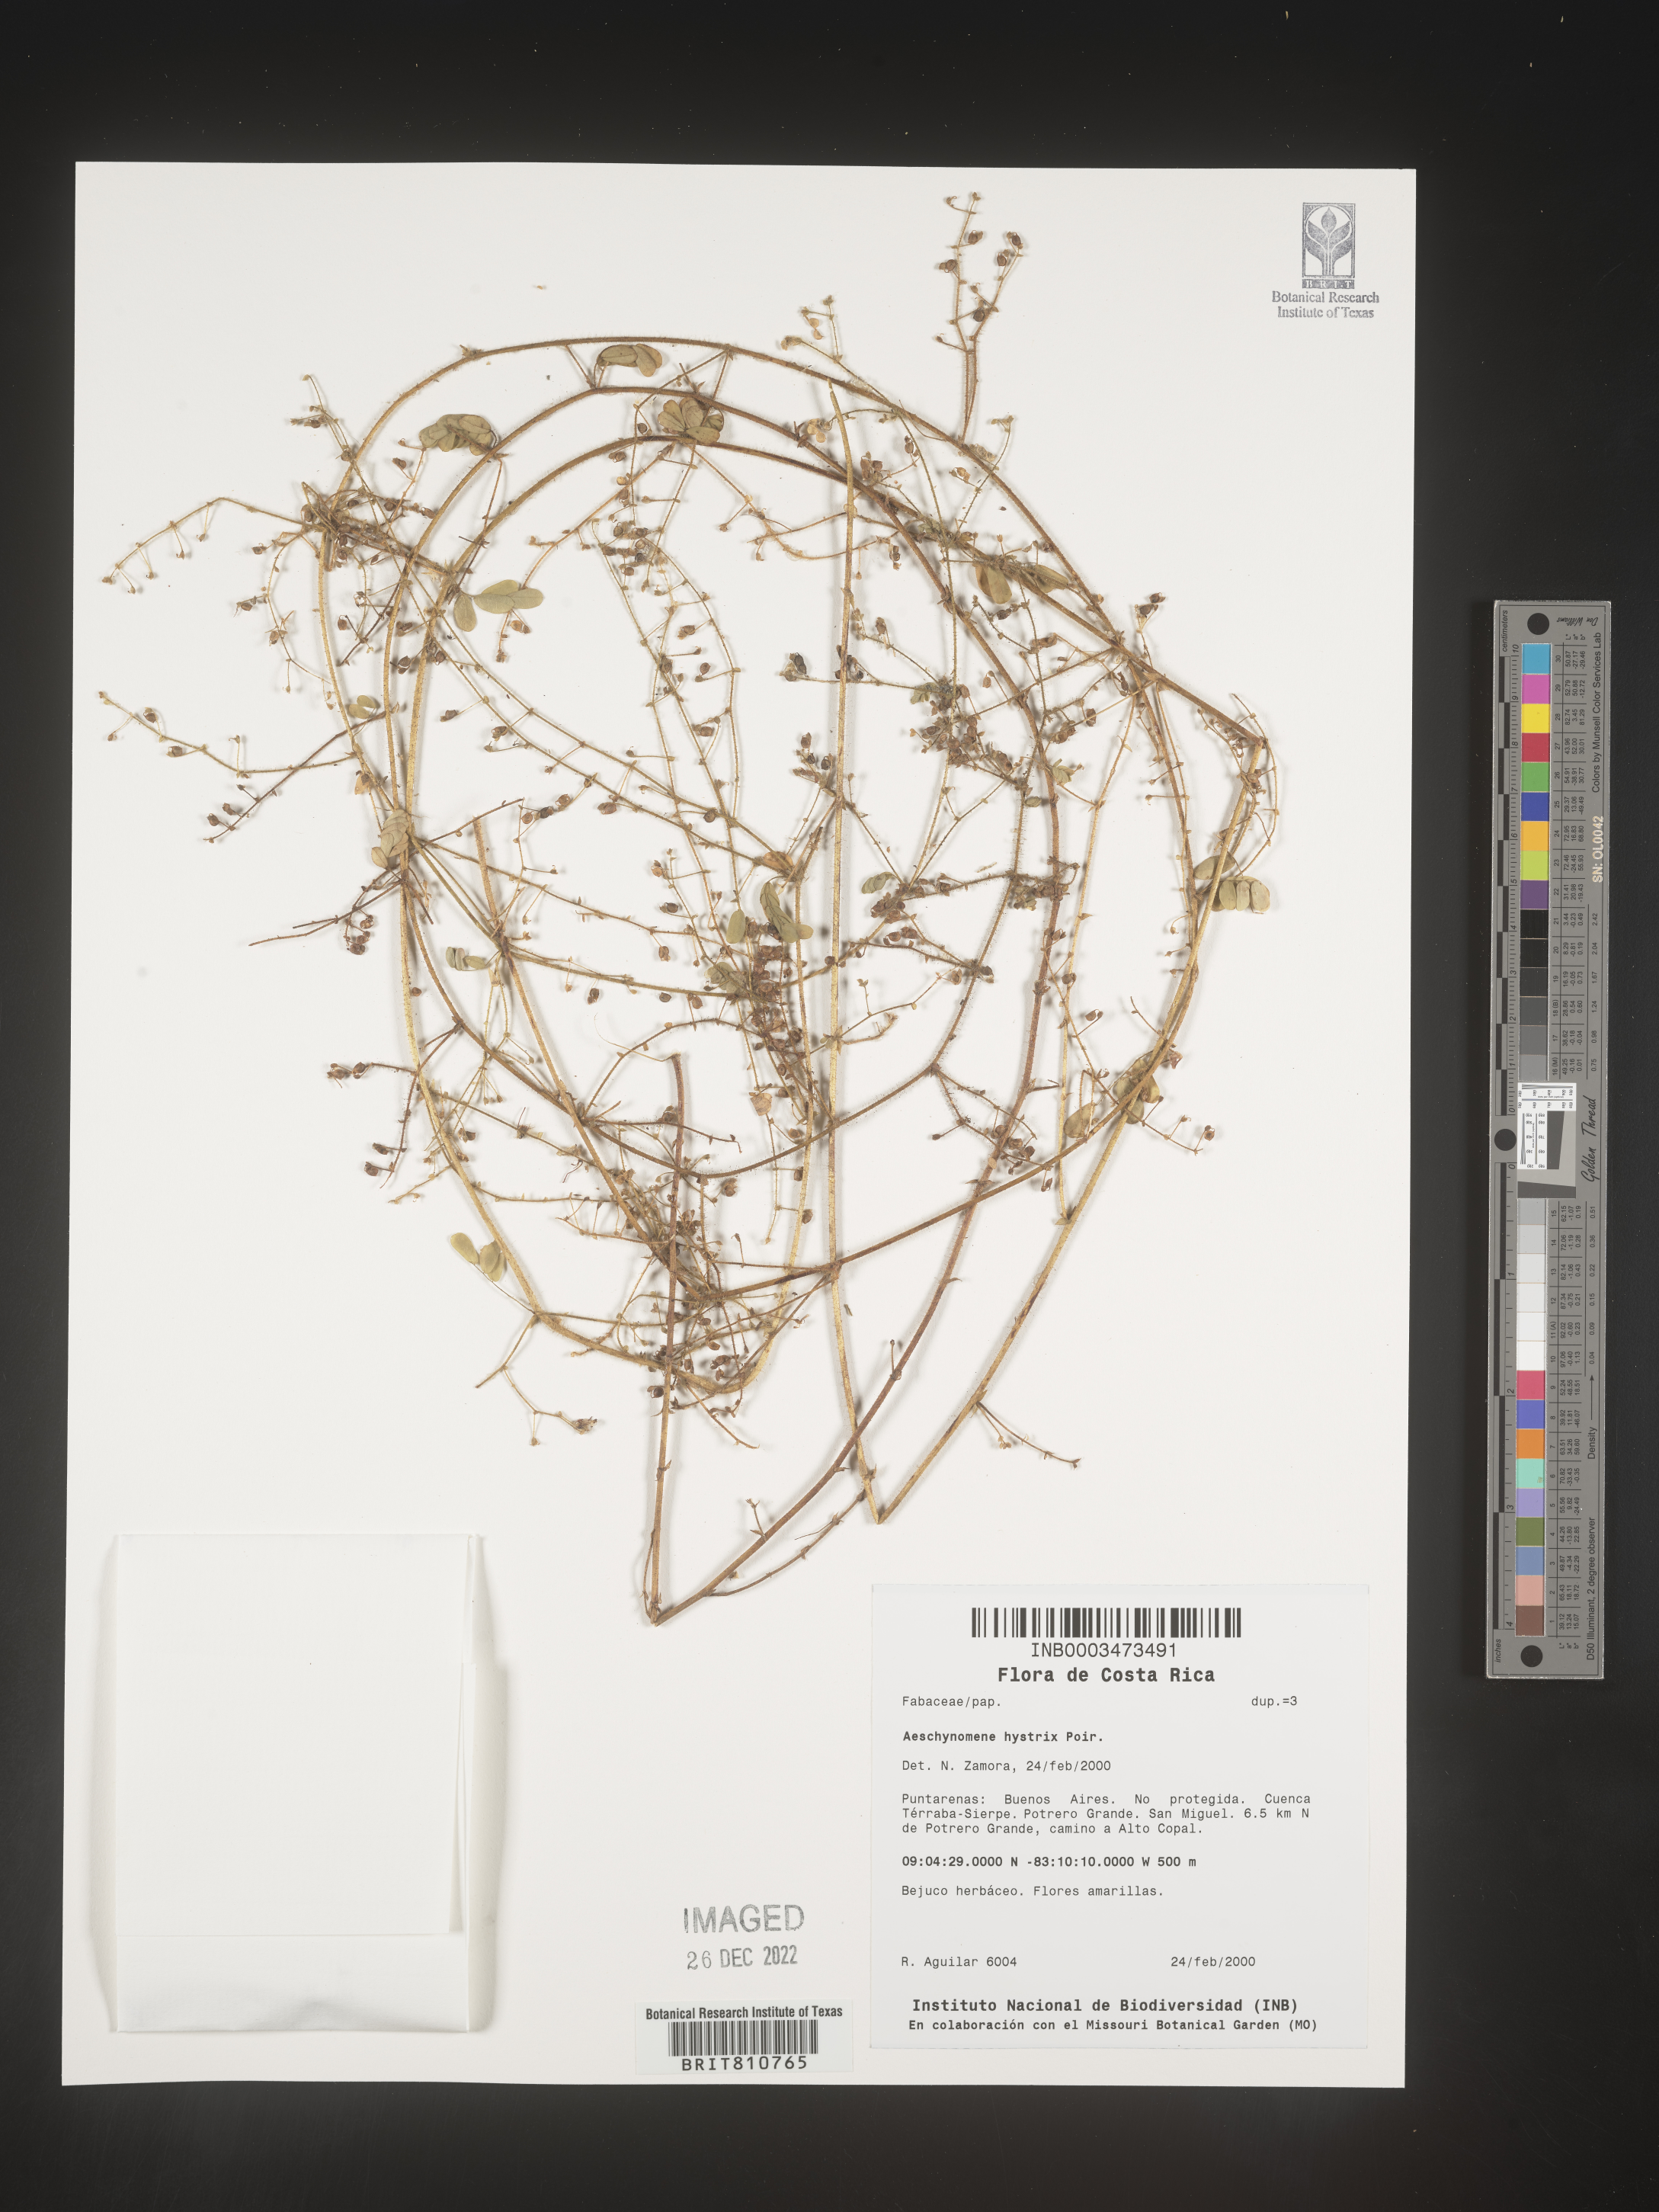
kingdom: Plantae
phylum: Tracheophyta
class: Magnoliopsida
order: Fabales
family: Fabaceae
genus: Aeschynomene
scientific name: Aeschynomene
